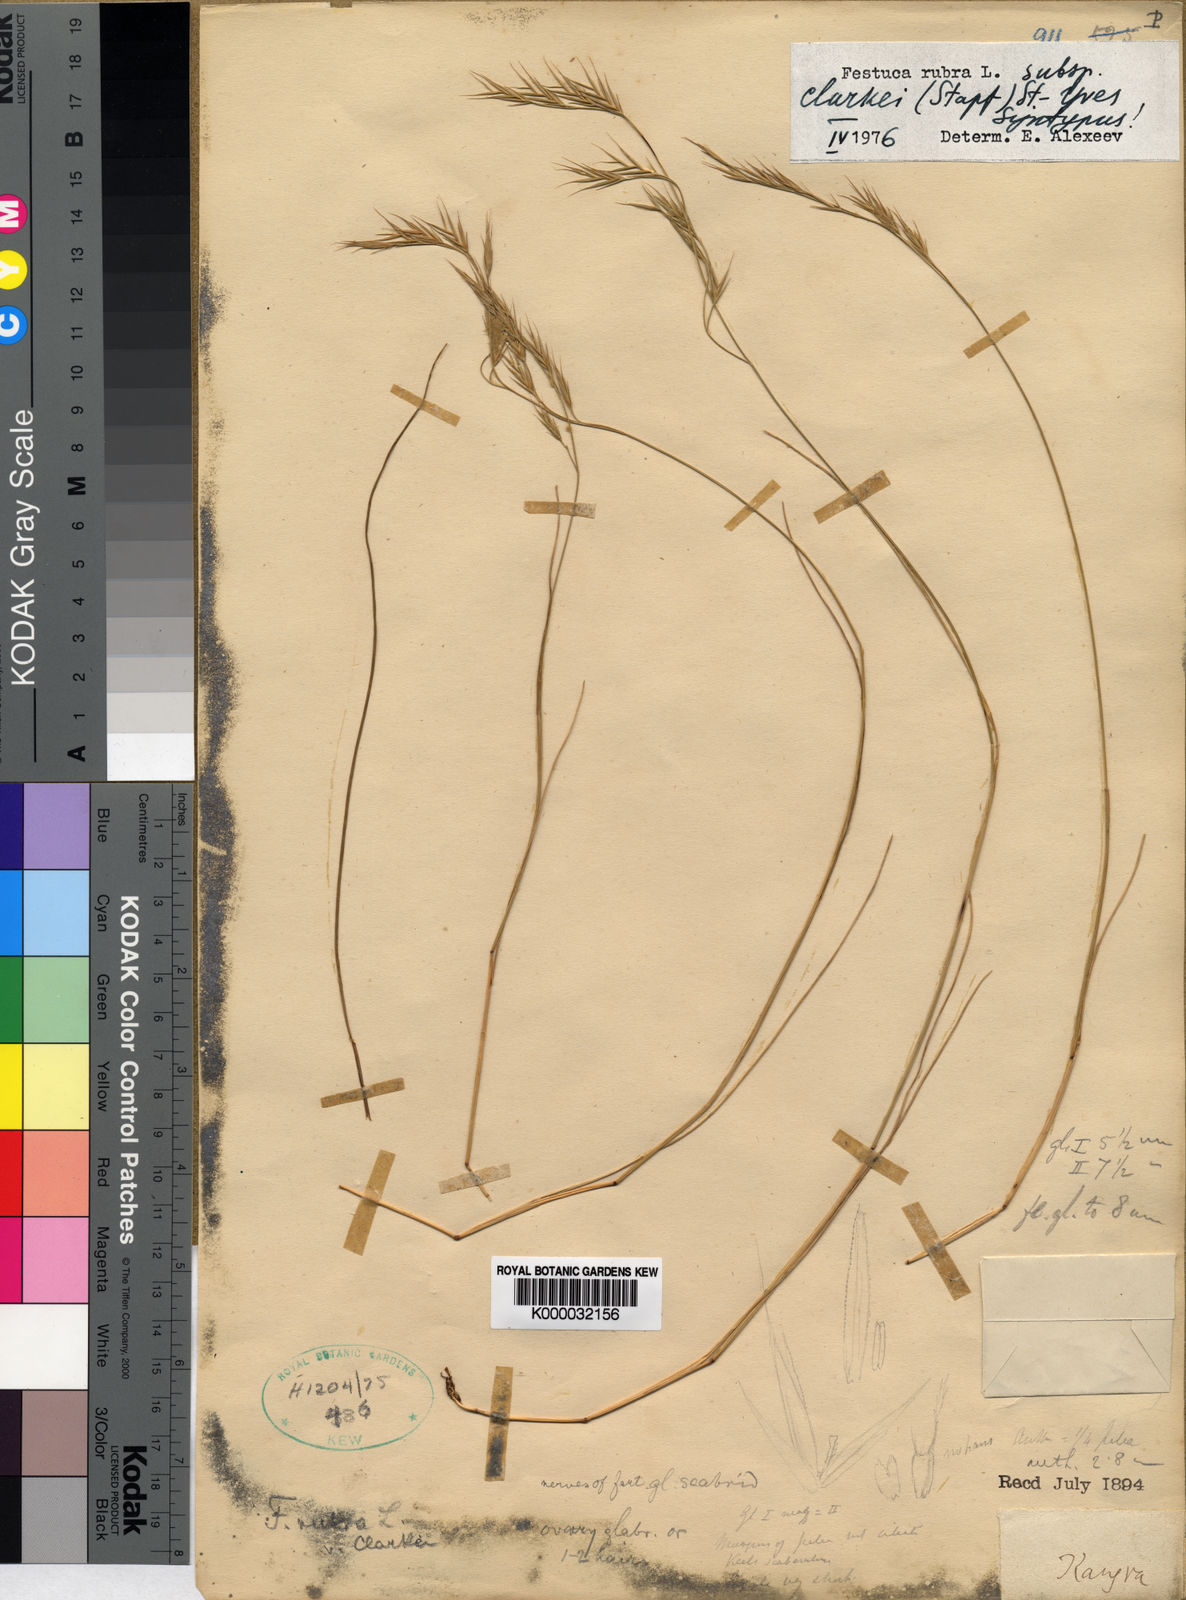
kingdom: Plantae
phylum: Tracheophyta
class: Liliopsida
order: Poales
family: Poaceae
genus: Festuca
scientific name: Festuca rubra
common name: Red fescue
